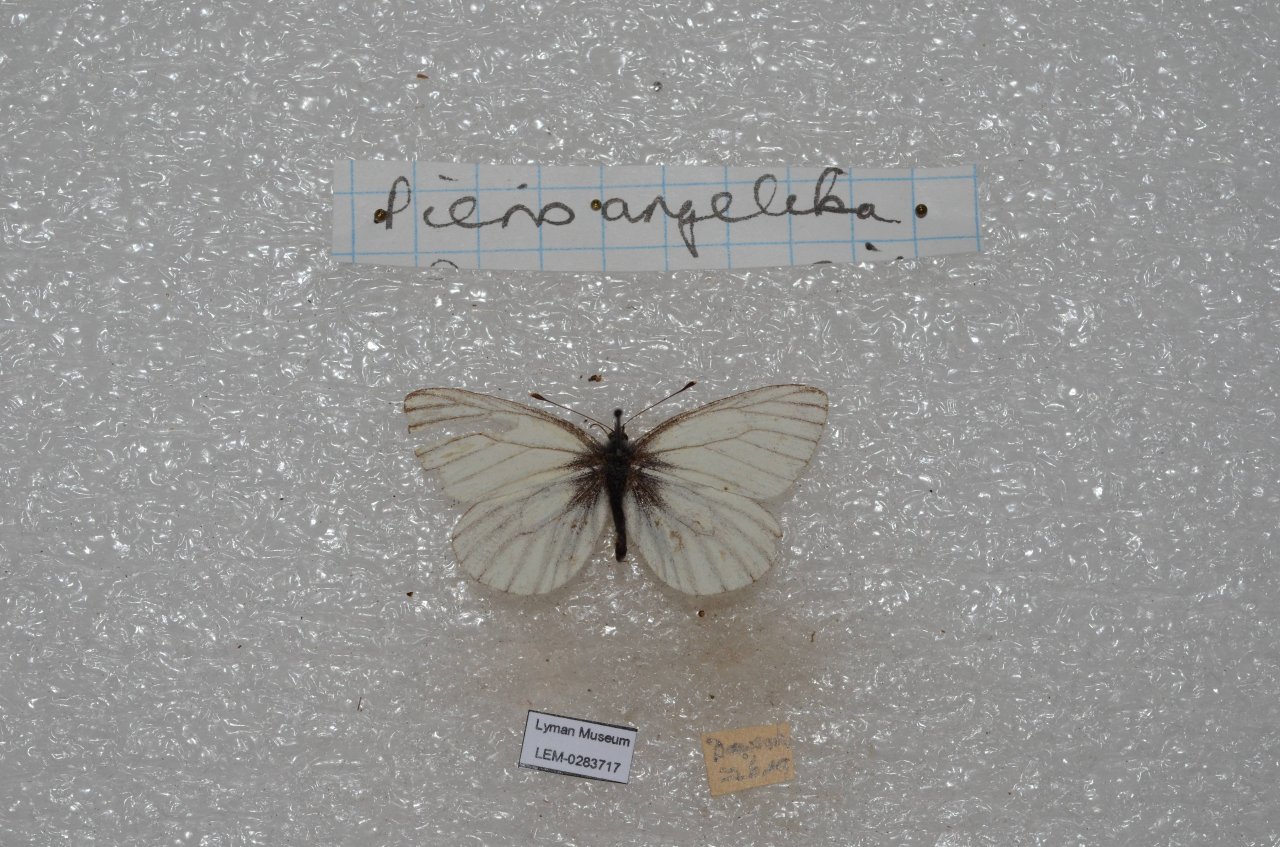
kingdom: Animalia
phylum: Arthropoda
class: Insecta
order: Lepidoptera
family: Pieridae
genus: Pieris
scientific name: Pieris angelika
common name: Arctic White
